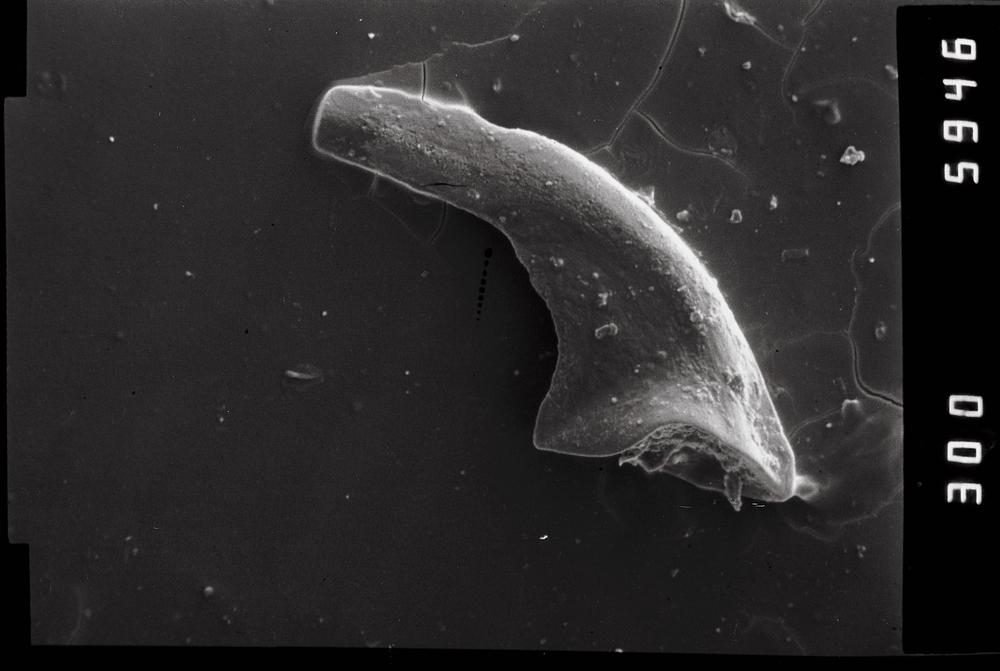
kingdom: Animalia
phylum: Chordata
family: Acodontidae
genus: Tripodus
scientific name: Tripodus
